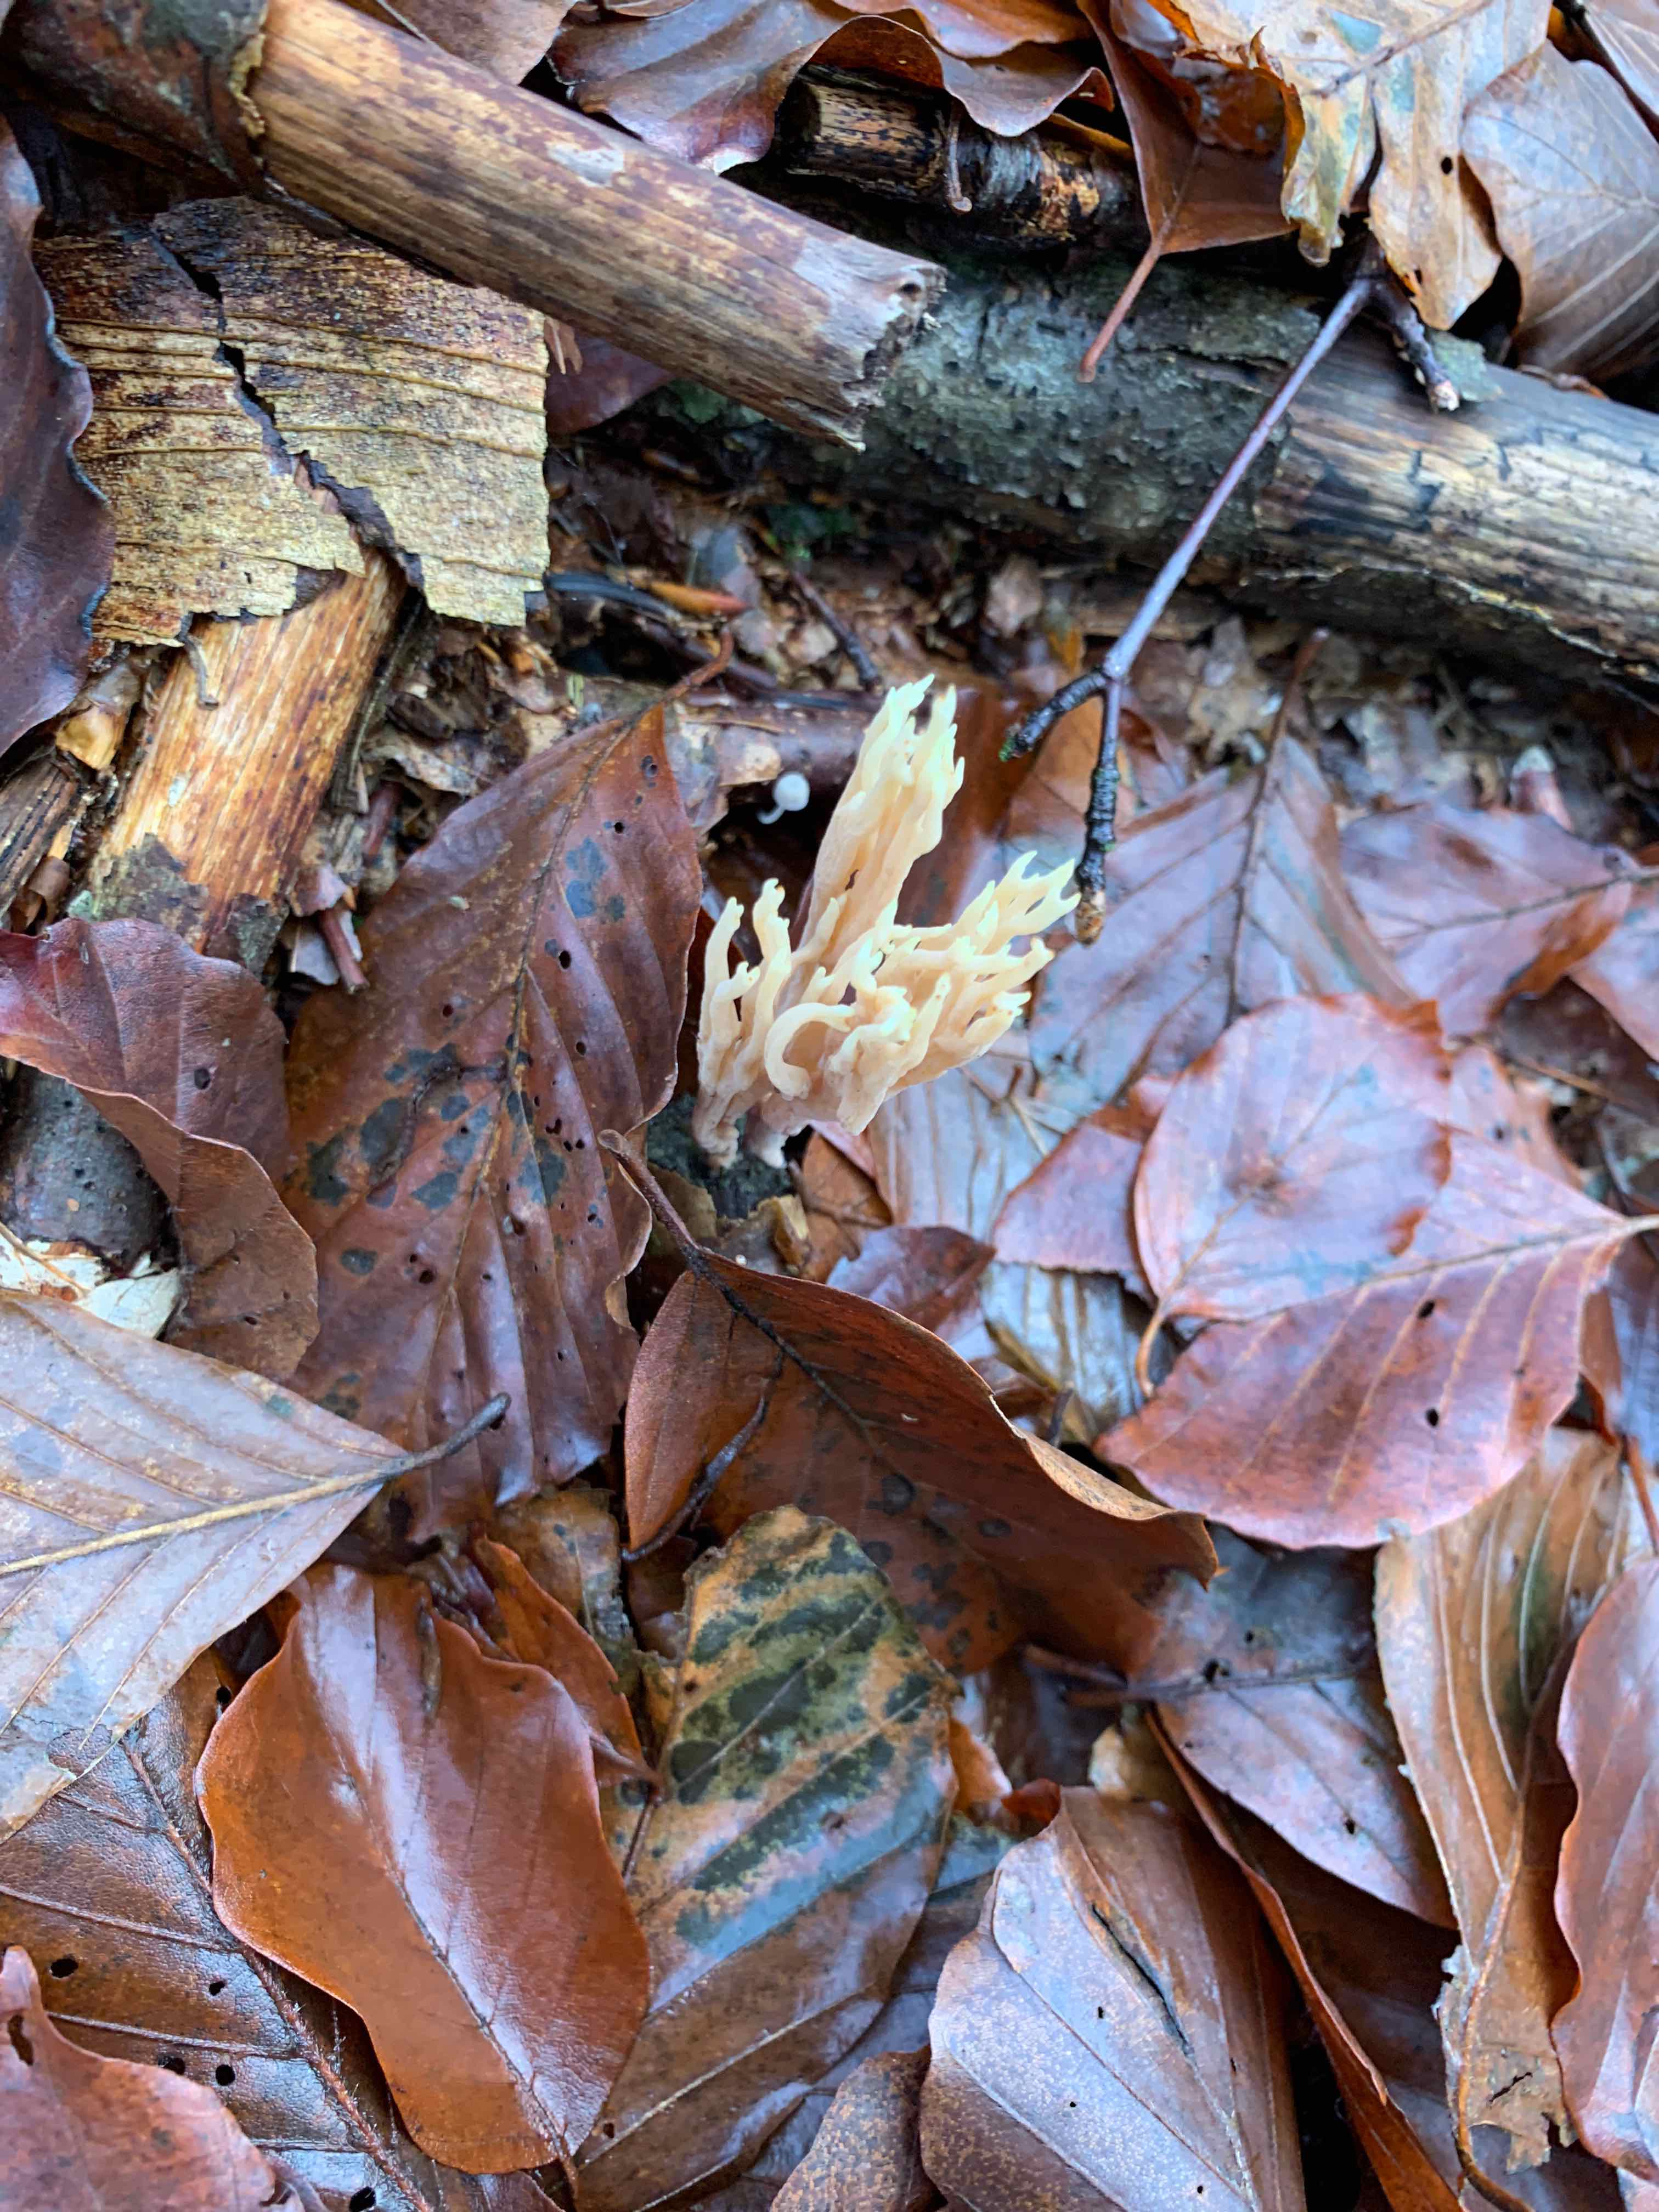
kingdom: Fungi
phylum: Basidiomycota
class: Agaricomycetes
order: Gomphales
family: Gomphaceae
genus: Ramaria
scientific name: Ramaria stricta
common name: rank koralsvamp
